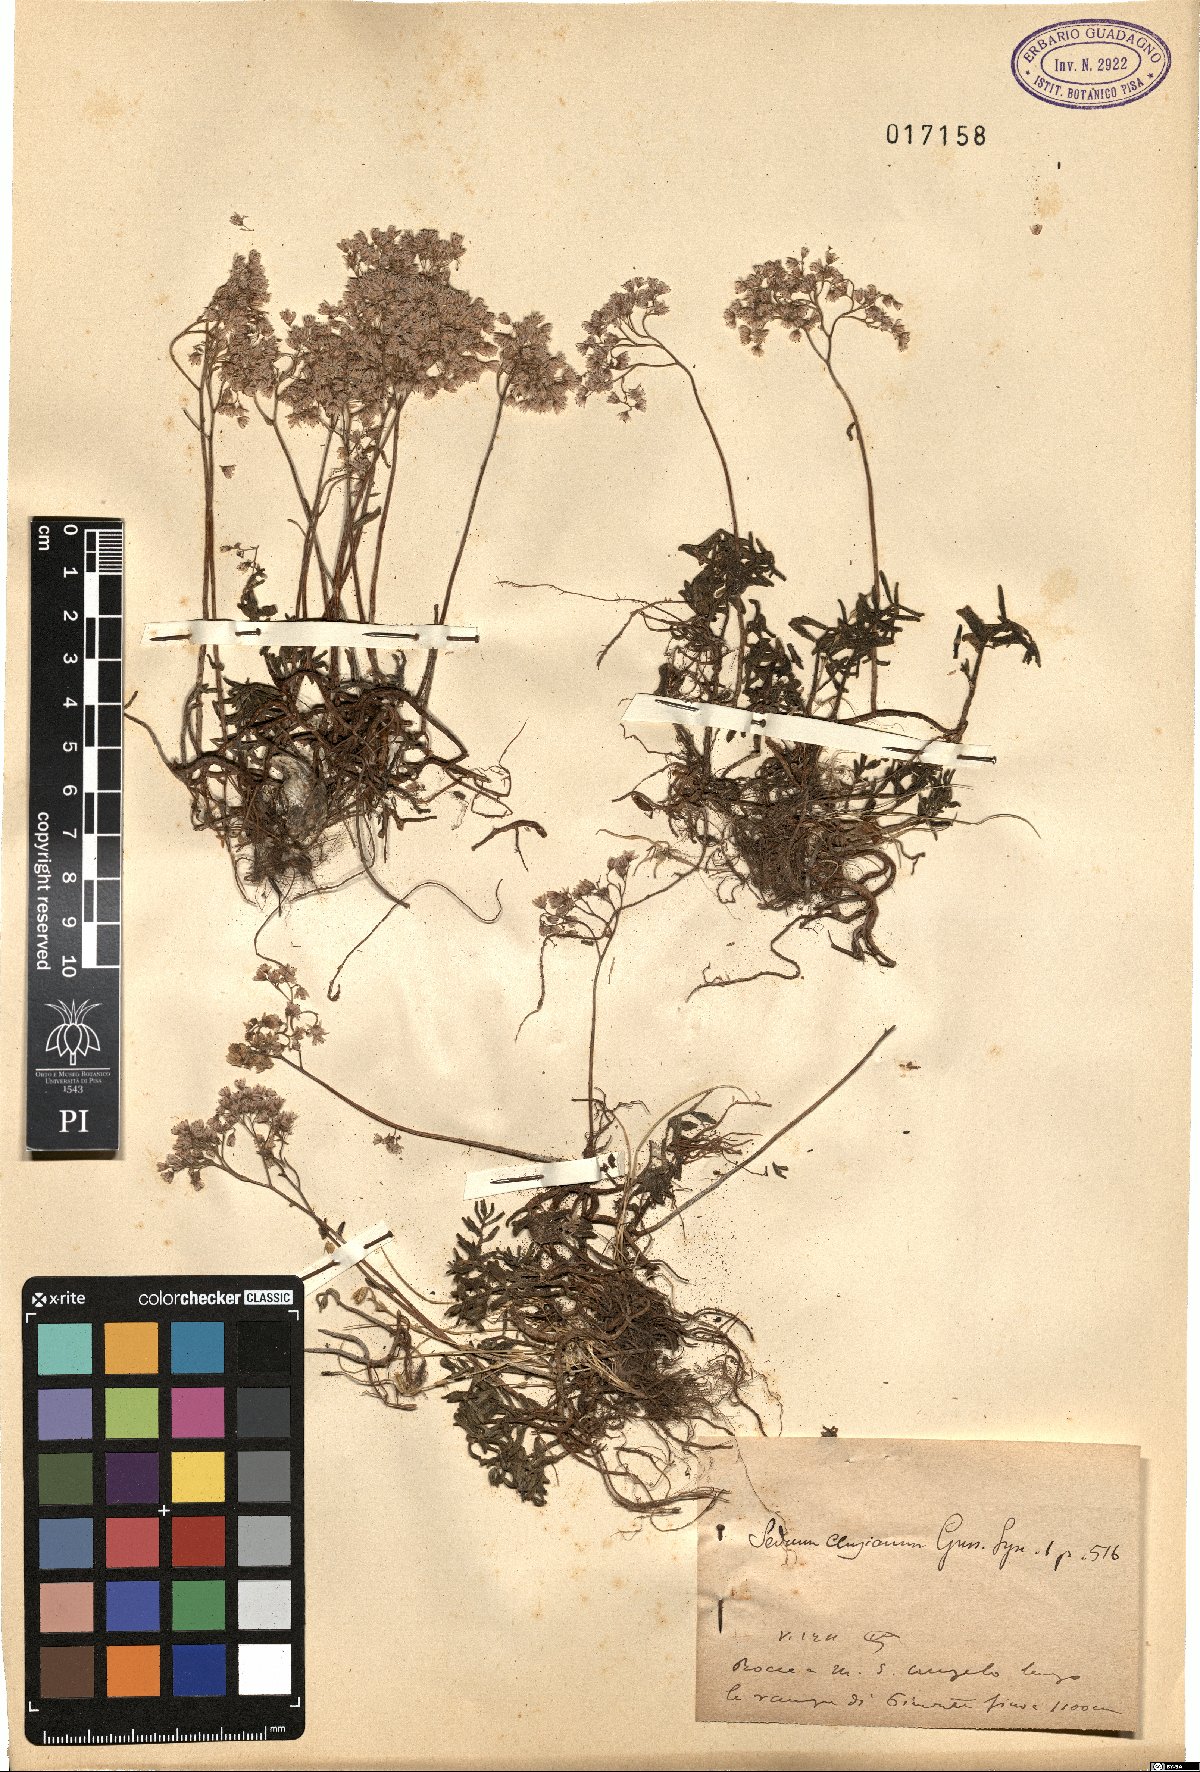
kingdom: Plantae
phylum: Tracheophyta
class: Magnoliopsida
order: Saxifragales
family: Crassulaceae
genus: Sedum
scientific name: Sedum
